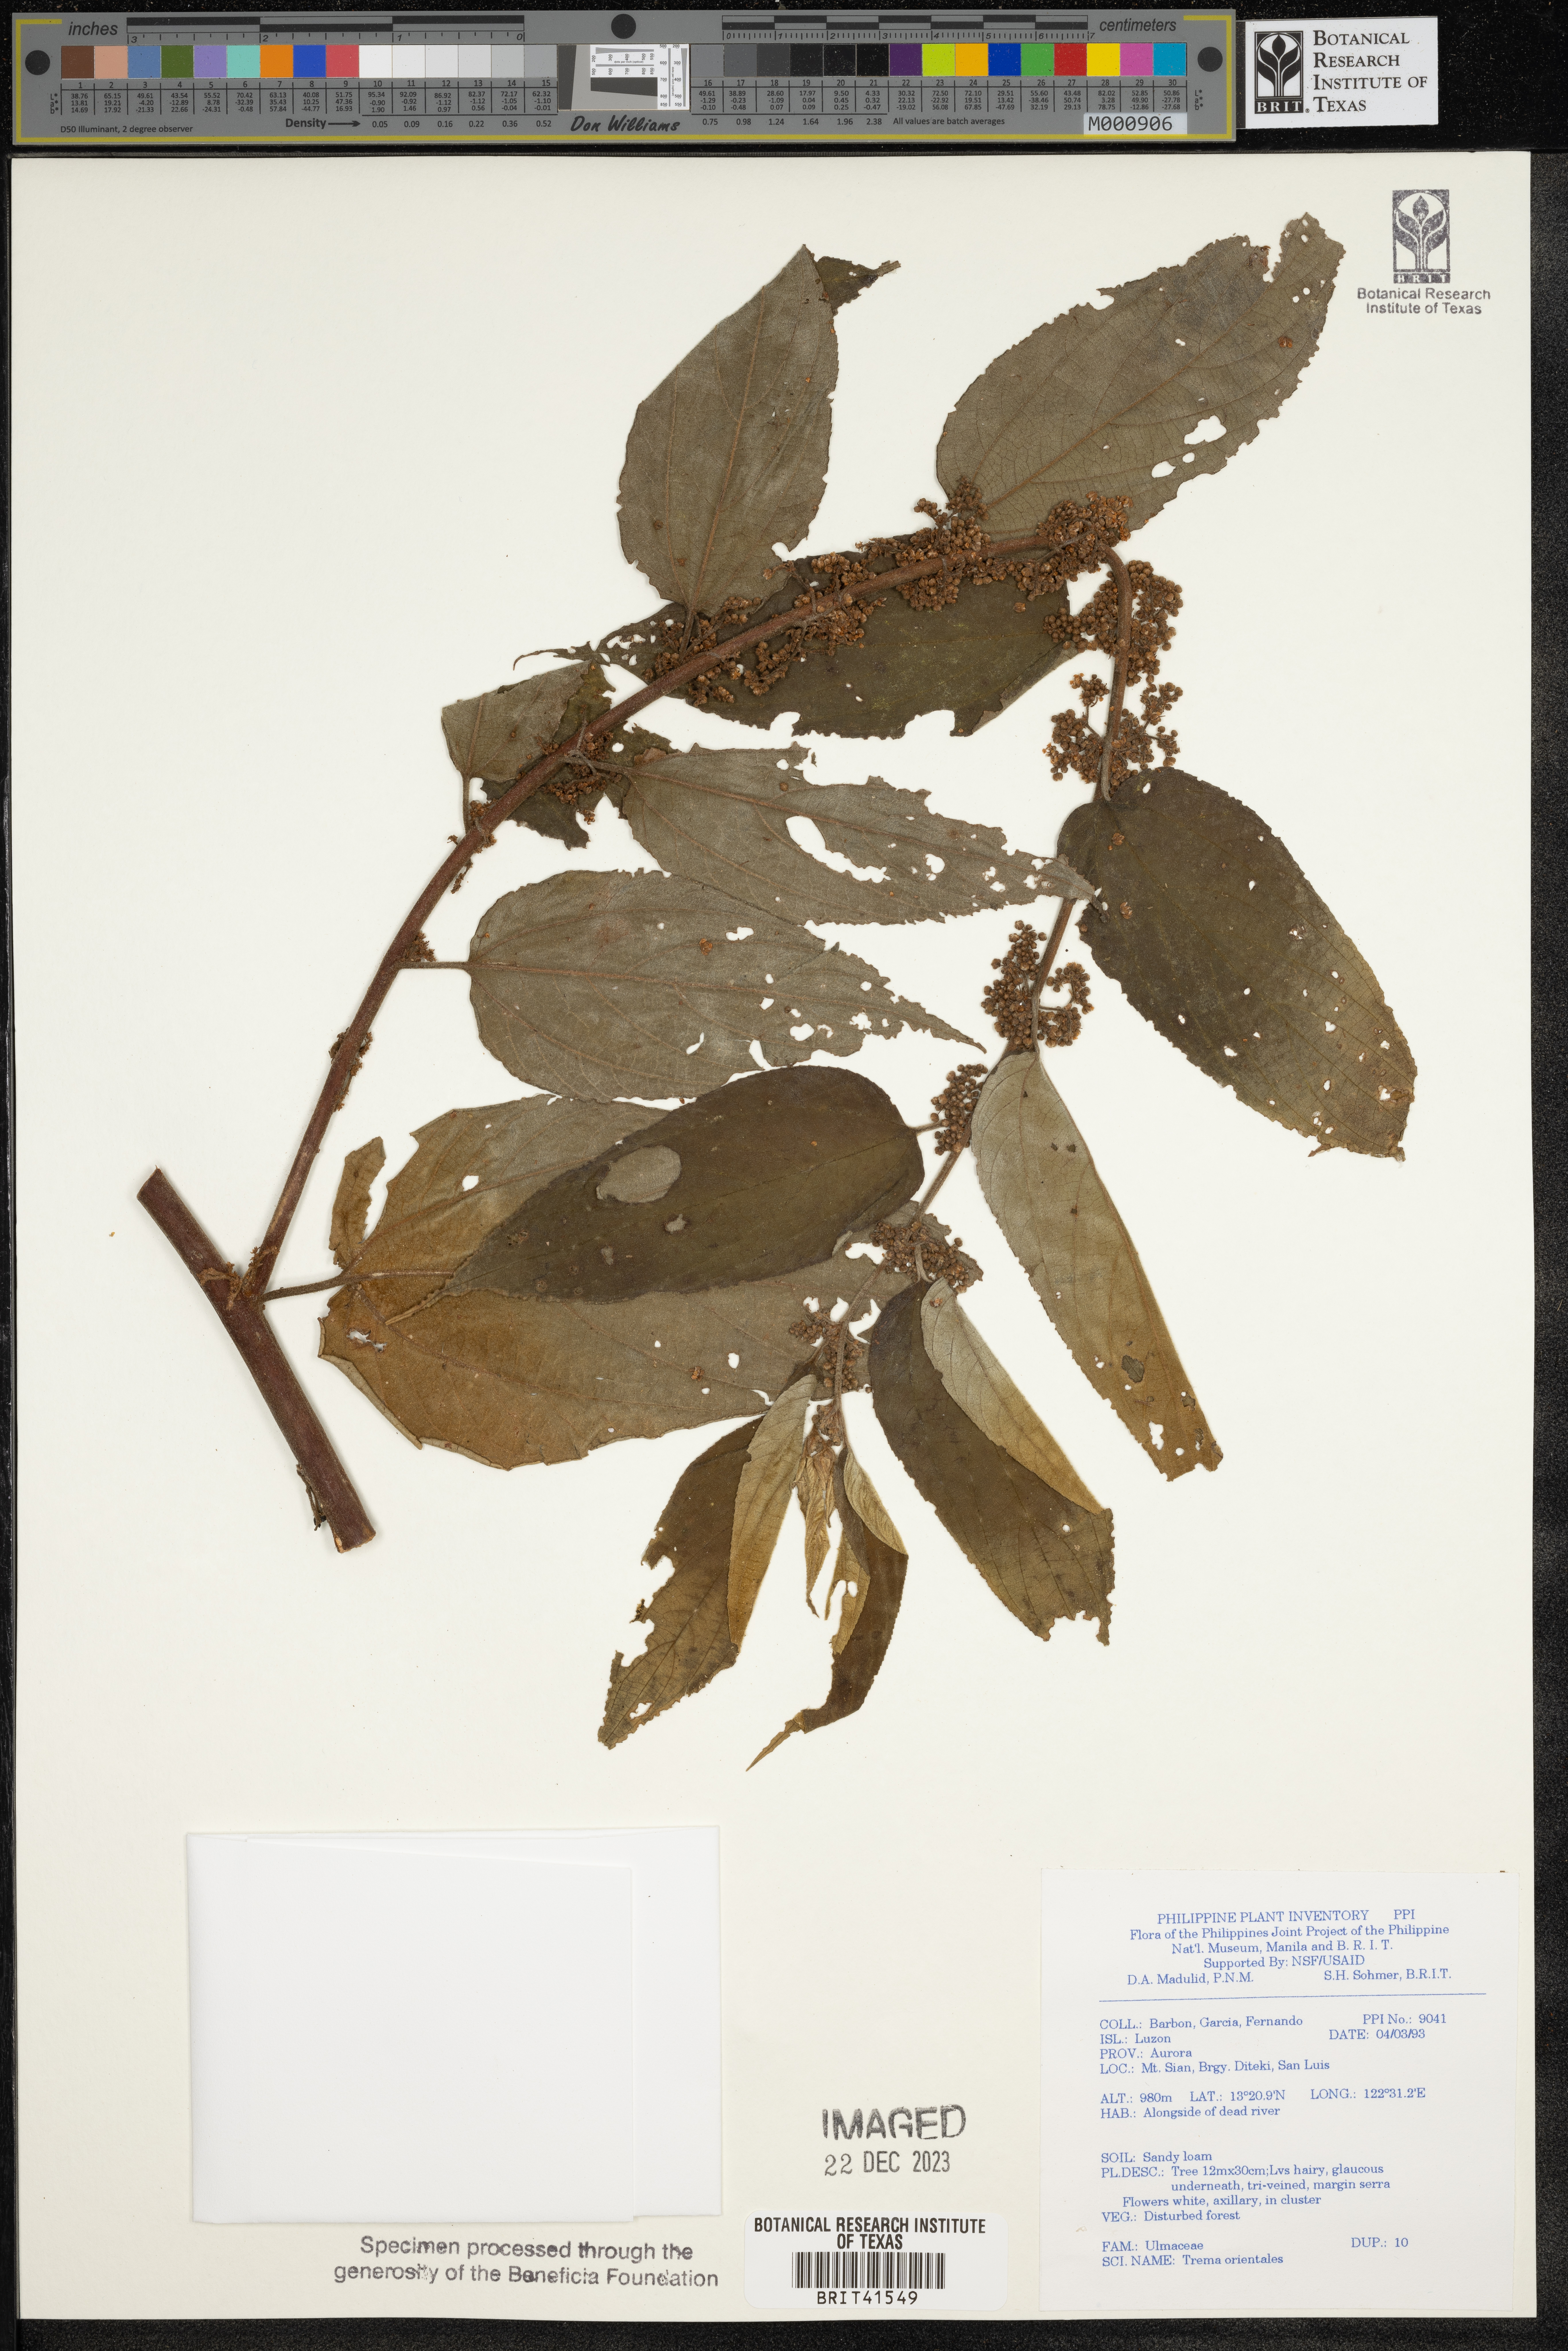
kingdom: Plantae
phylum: Tracheophyta
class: Magnoliopsida
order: Rosales
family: Cannabaceae
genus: Trema
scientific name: Trema orientale
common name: Indian charcoal tree
